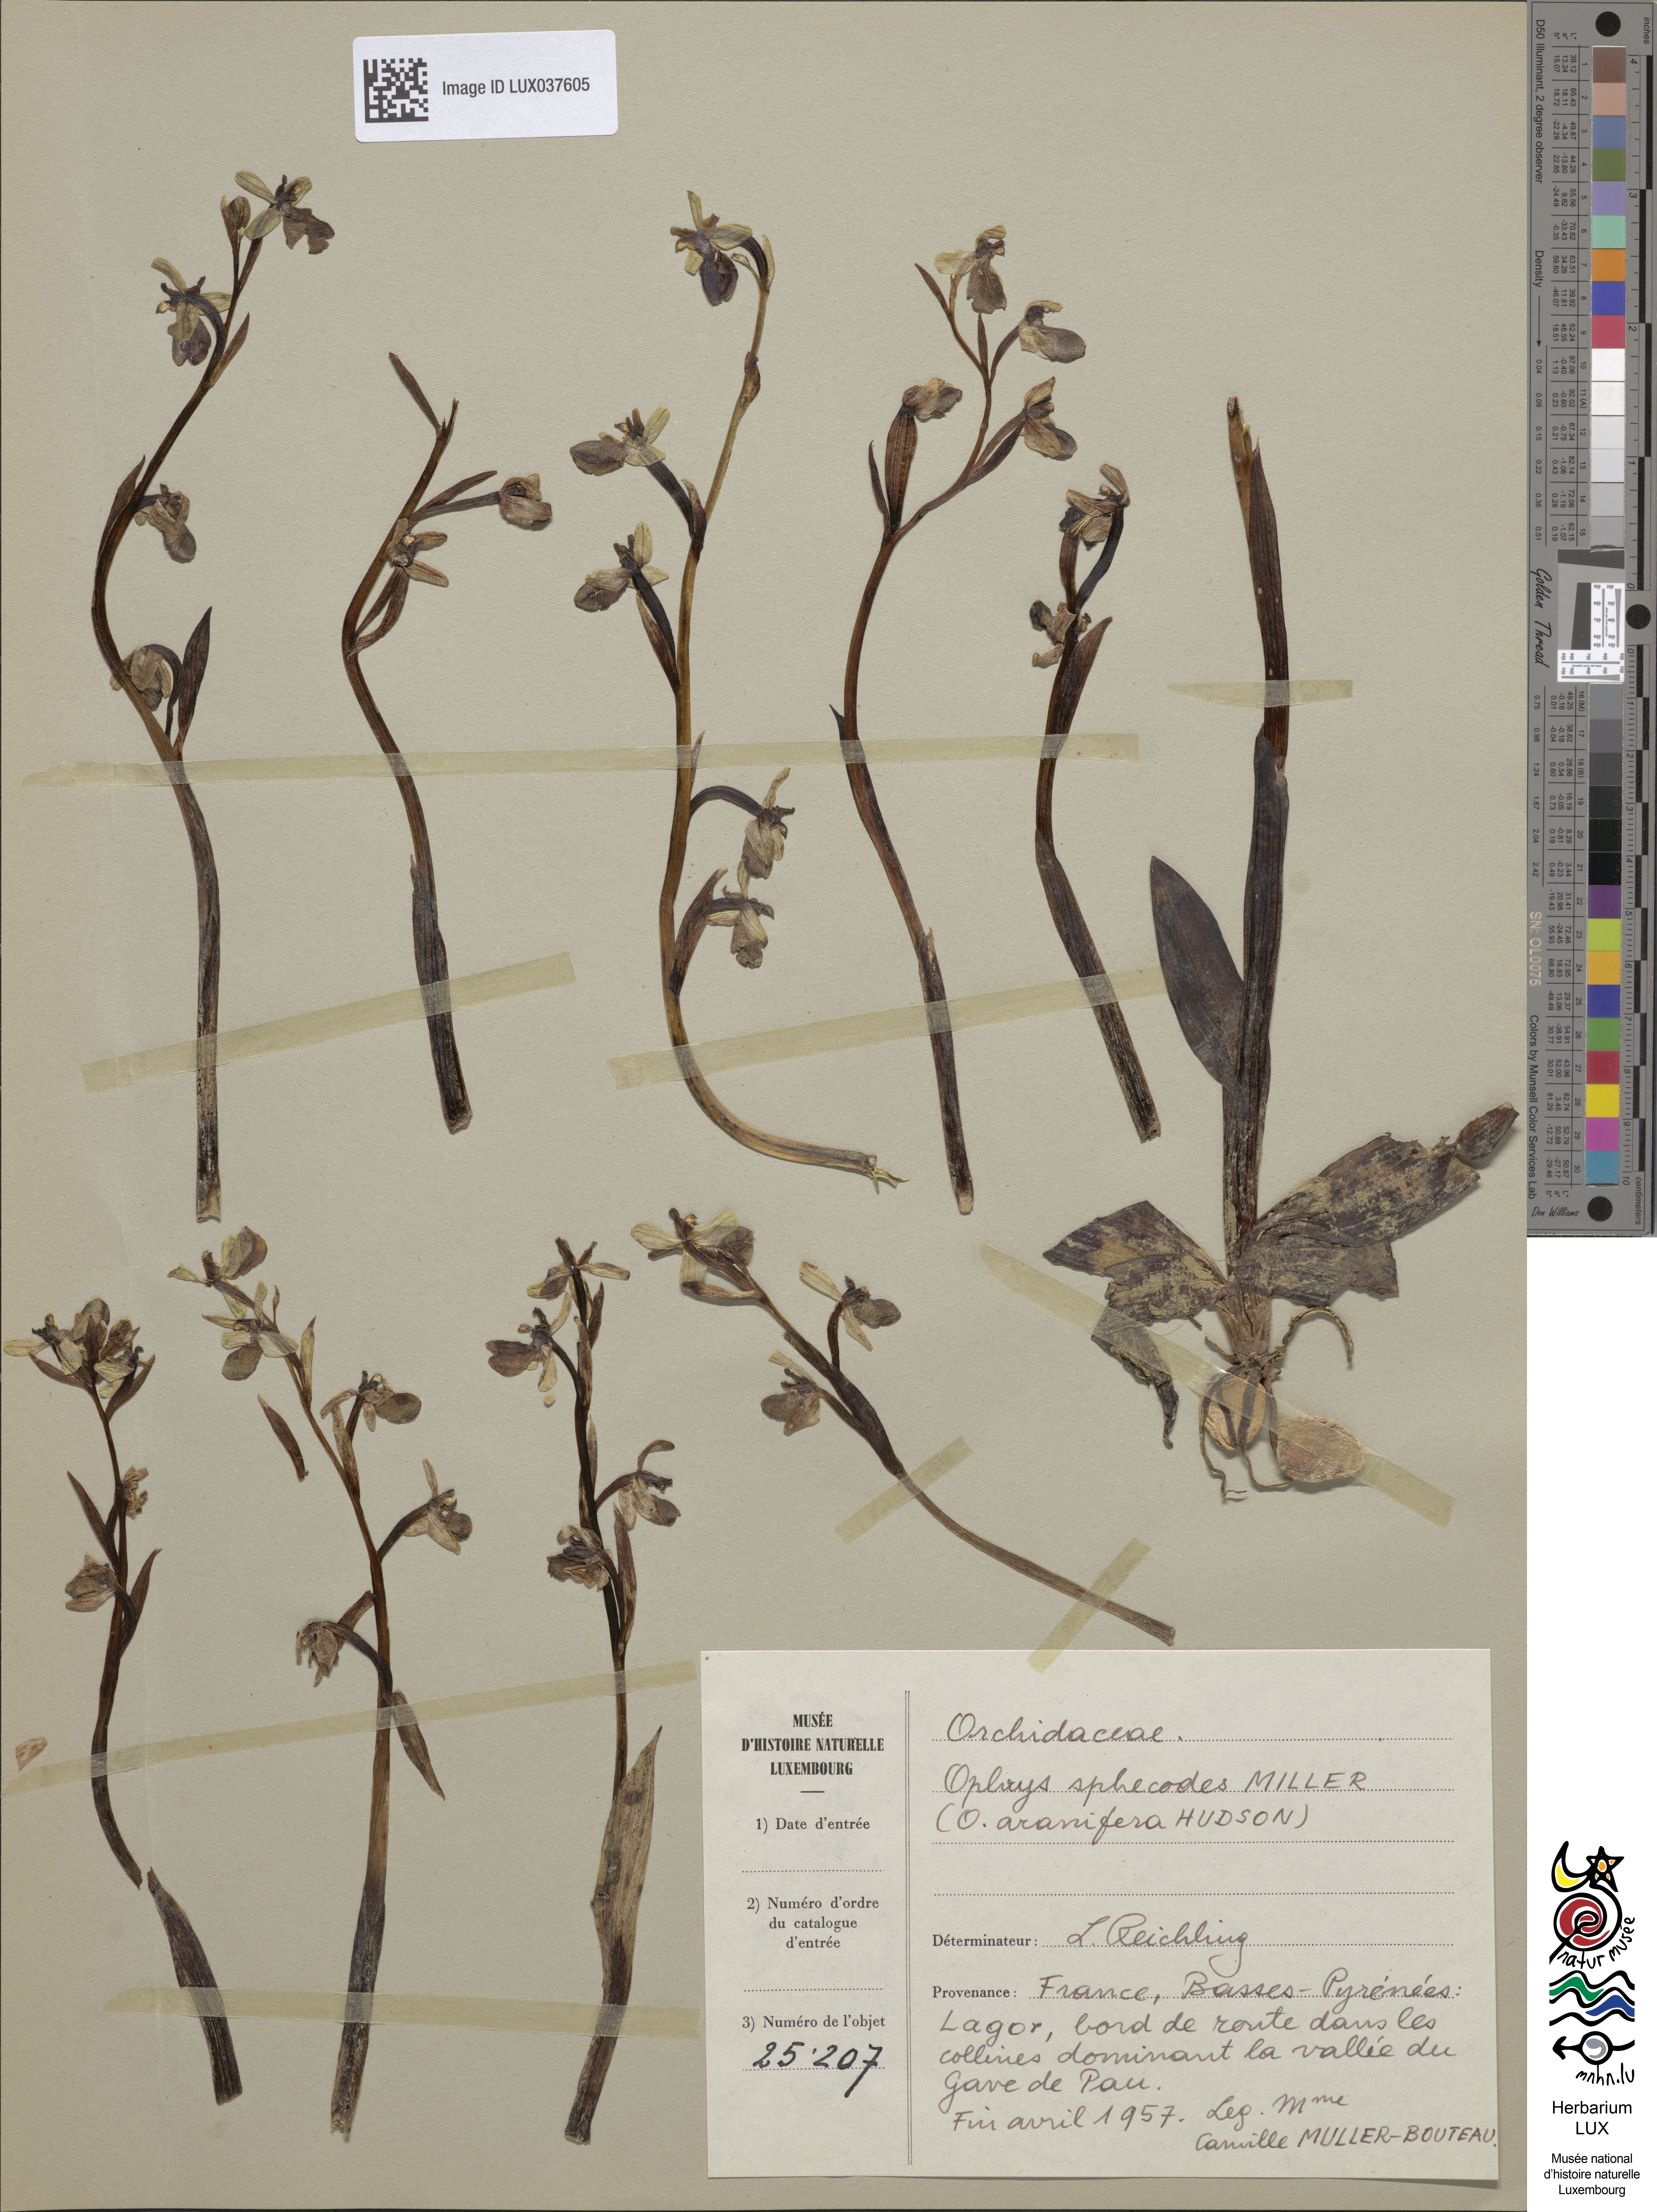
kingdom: Plantae
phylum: Tracheophyta
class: Liliopsida
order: Asparagales
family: Orchidaceae
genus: Ophrys
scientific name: Ophrys sphegodes
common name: Early spider-orchid
